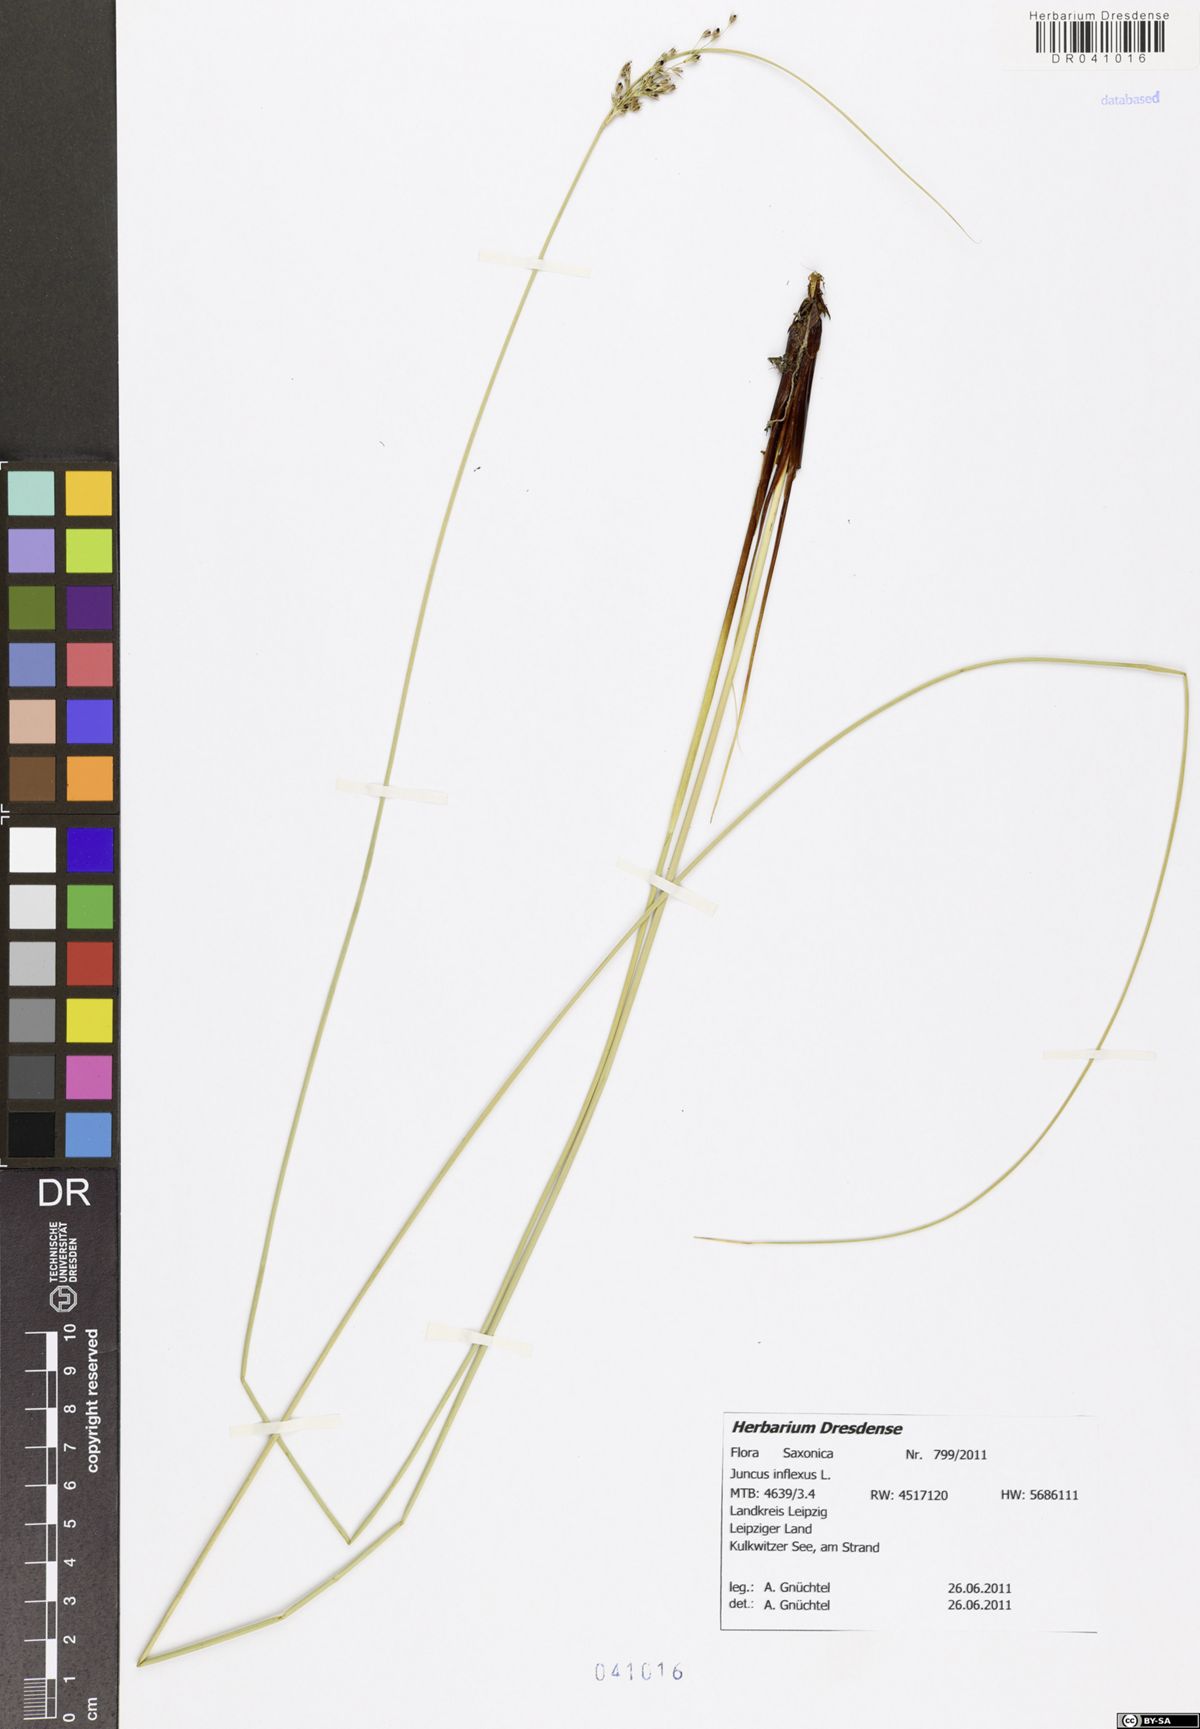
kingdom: Plantae
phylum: Tracheophyta
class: Liliopsida
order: Poales
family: Juncaceae
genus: Juncus
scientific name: Juncus inflexus
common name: Hard rush
